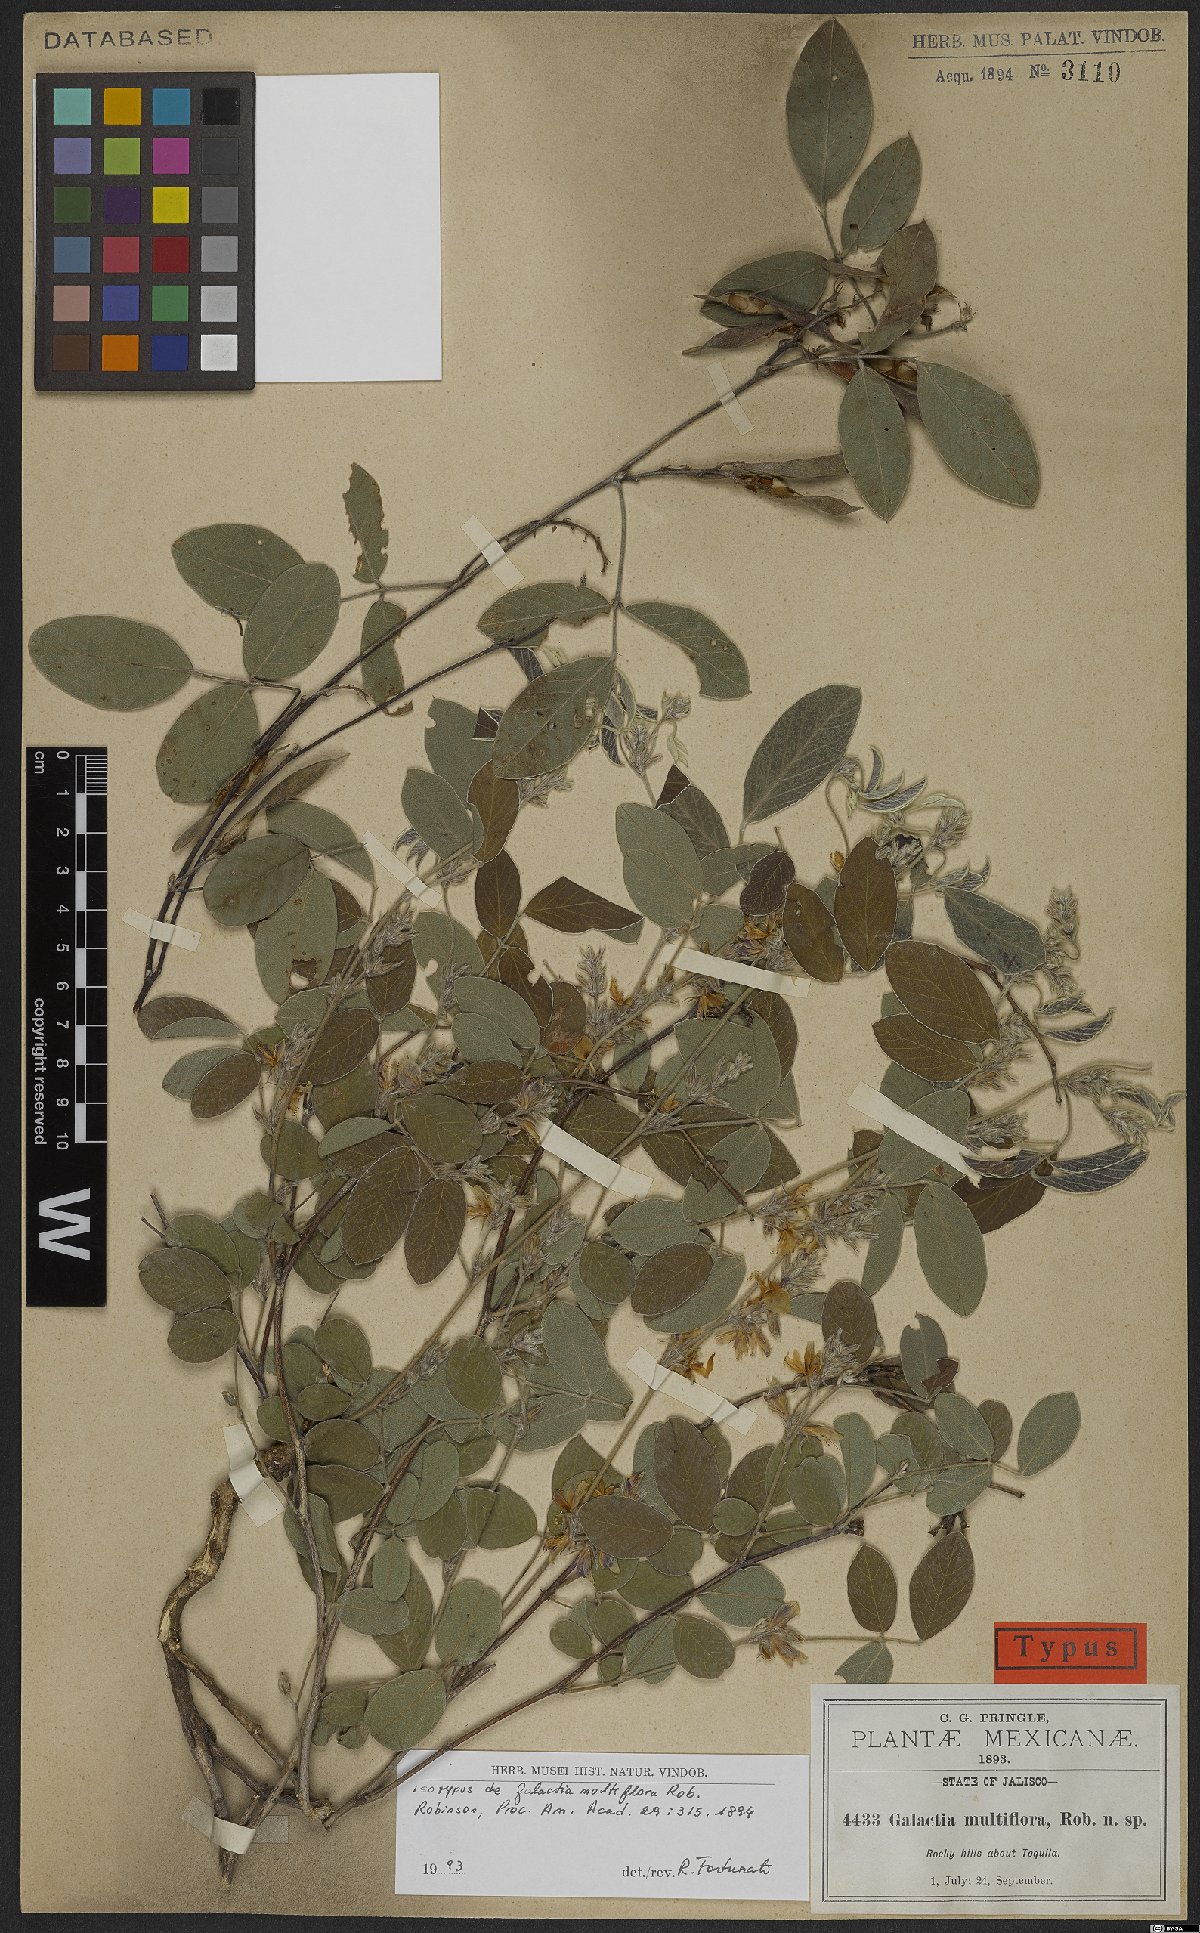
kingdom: Plantae
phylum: Tracheophyta
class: Magnoliopsida
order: Fabales
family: Fabaceae
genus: Galactia
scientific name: Galactia multiflora
